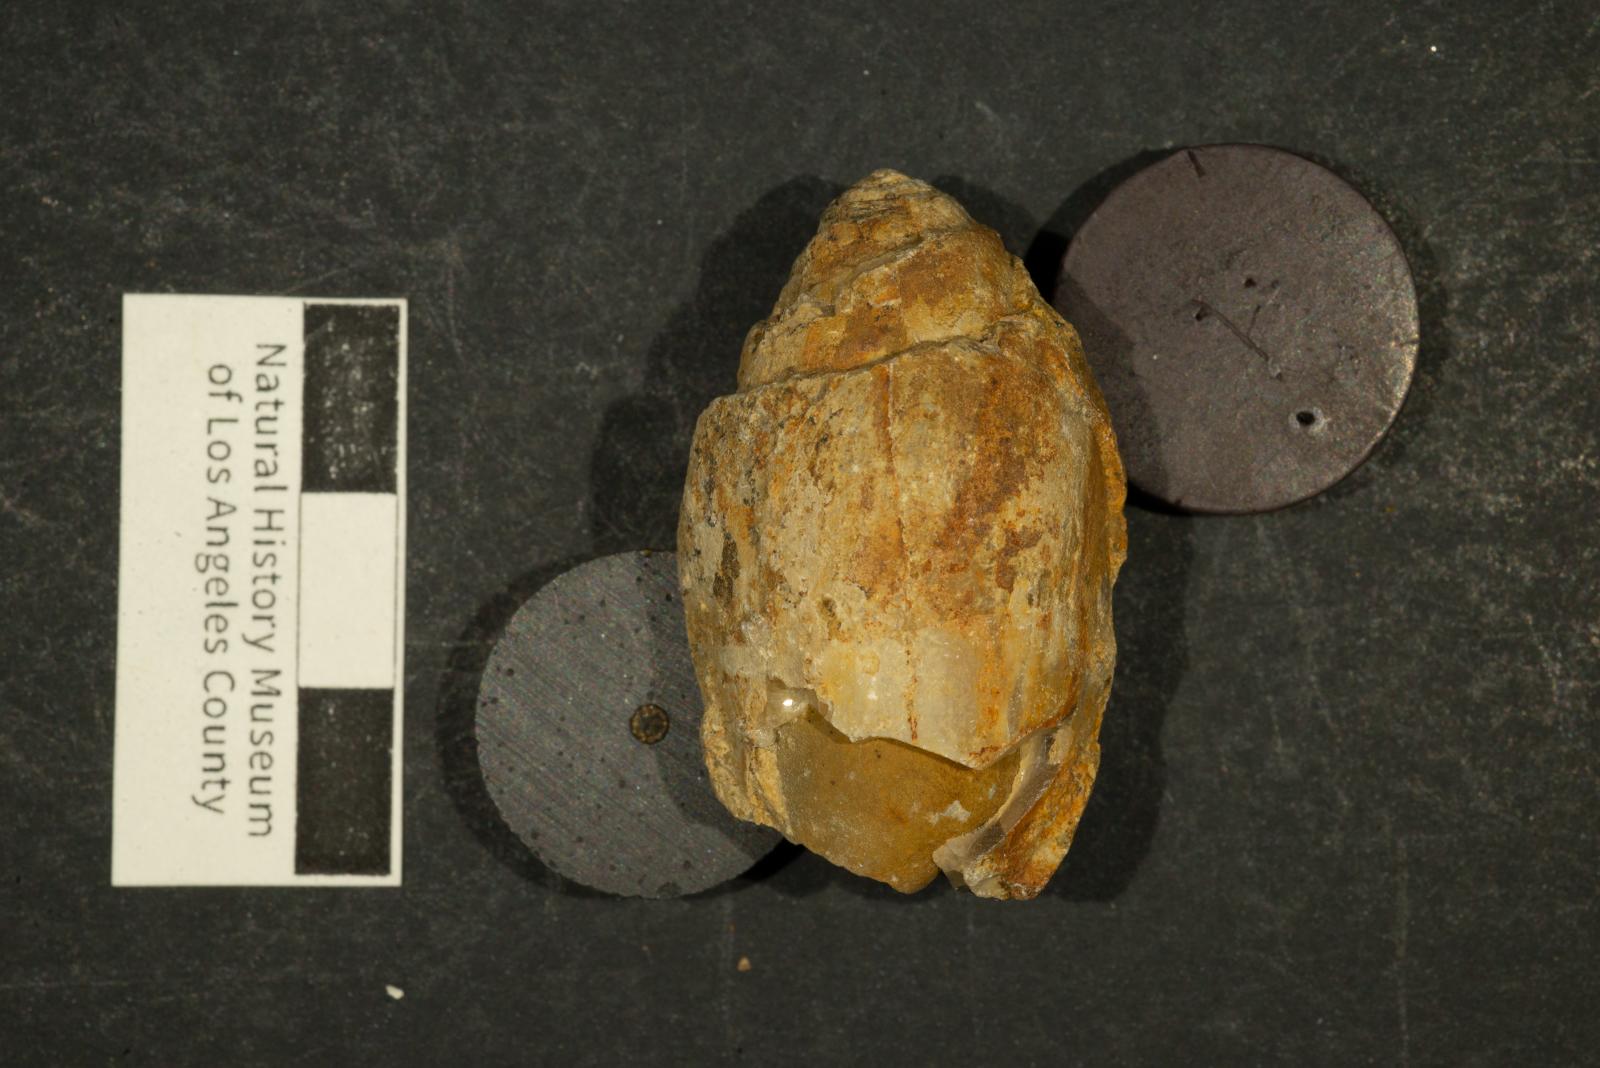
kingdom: Animalia
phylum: Mollusca
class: Gastropoda
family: Acteonellidae
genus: Trochactaeon
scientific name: Trochactaeon frazierensis
